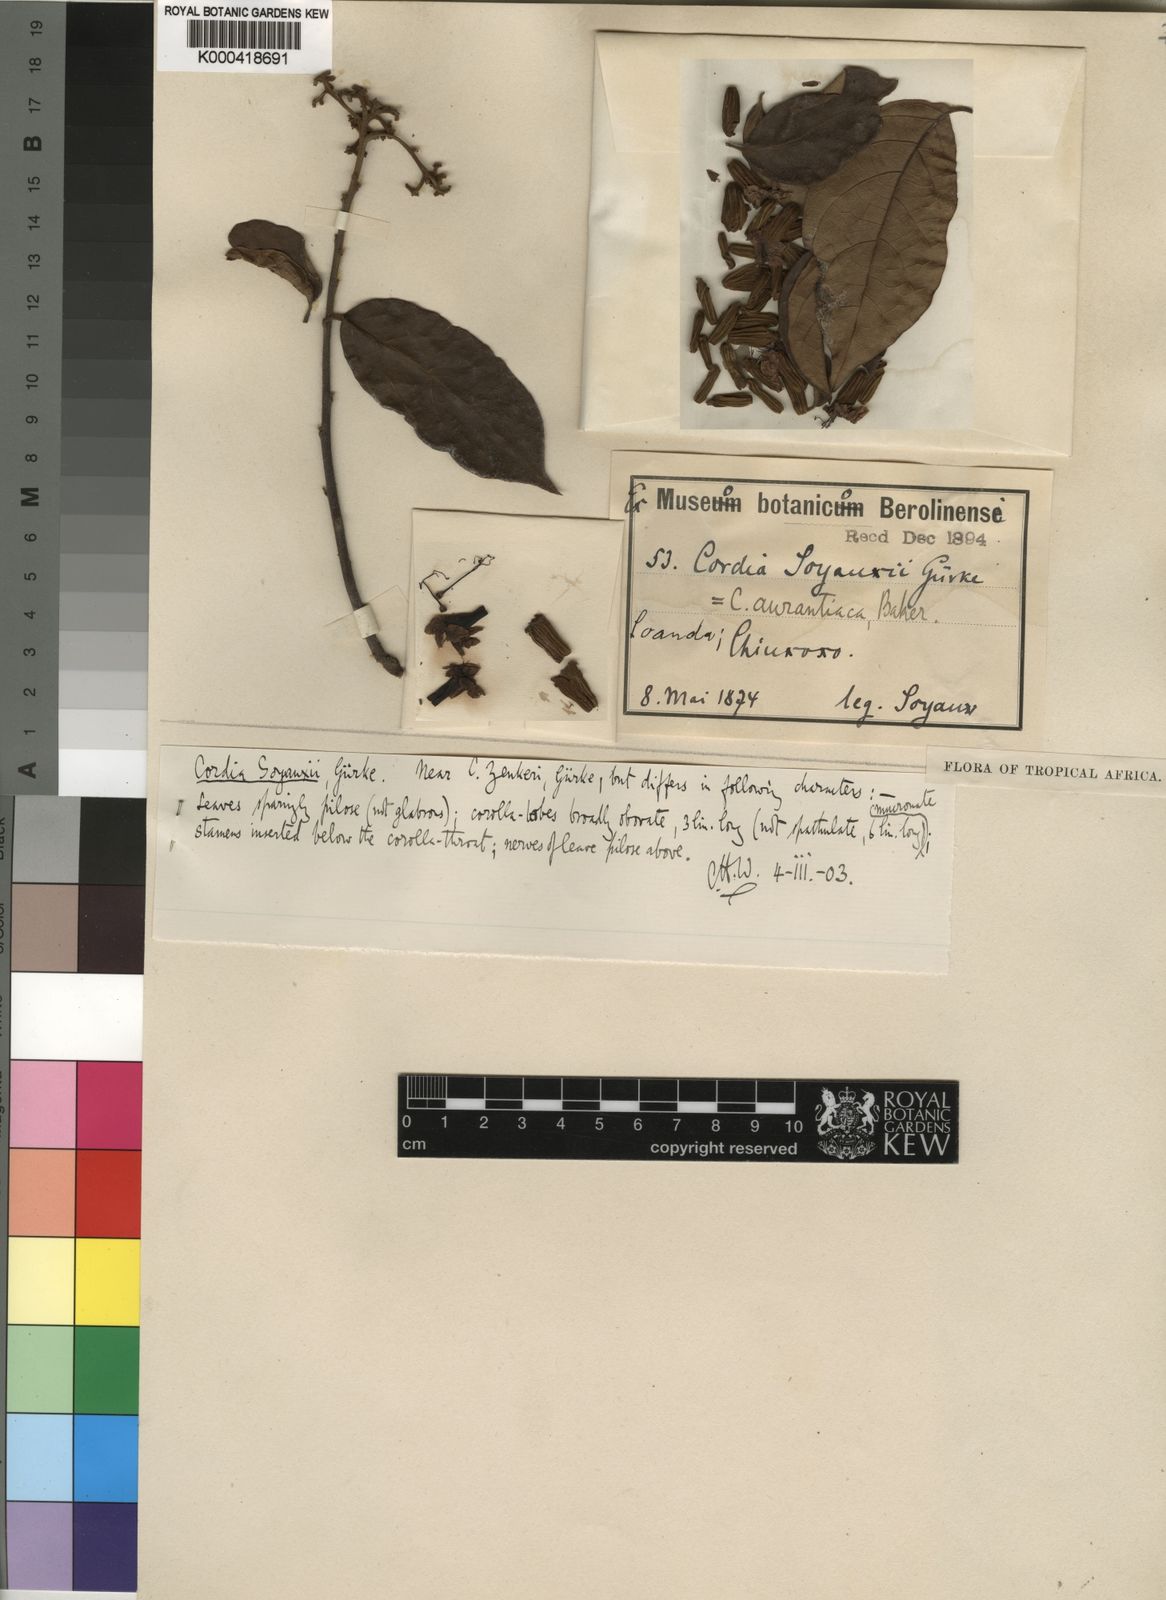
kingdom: Plantae
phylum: Tracheophyta
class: Magnoliopsida
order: Boraginales
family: Cordiaceae
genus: Cordia
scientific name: Cordia aurantiaca
